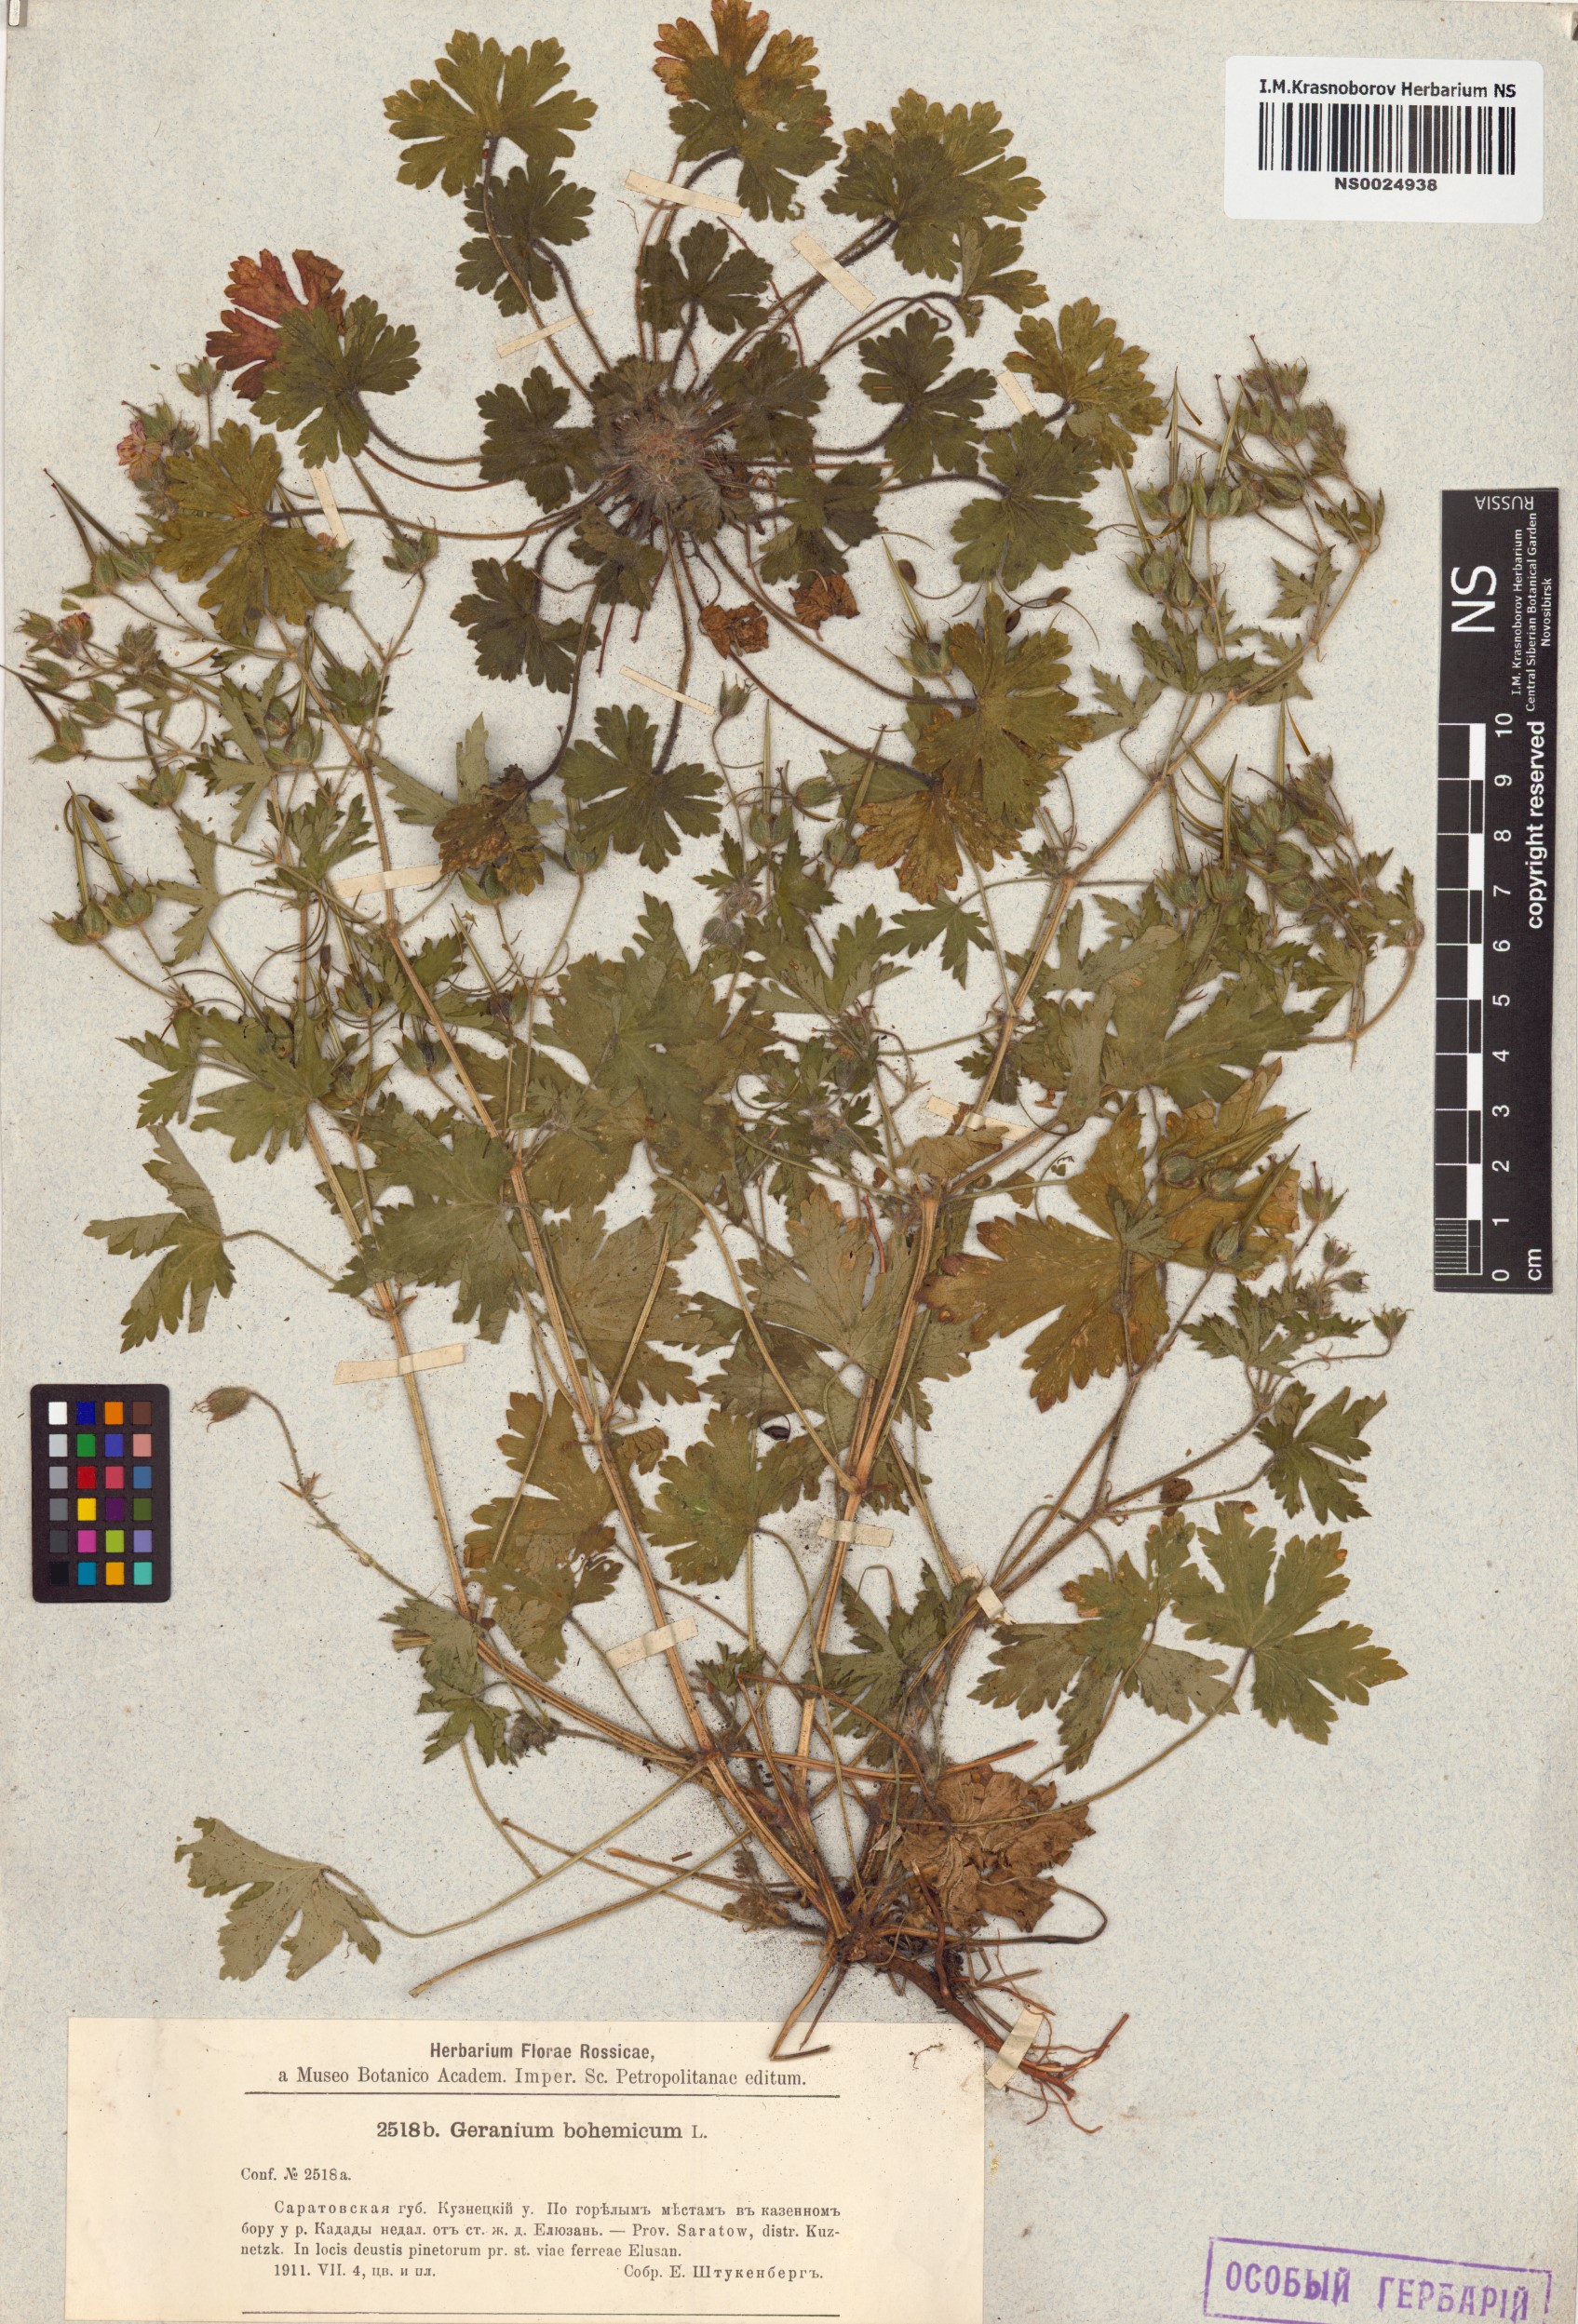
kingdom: Plantae
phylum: Tracheophyta
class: Magnoliopsida
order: Geraniales
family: Geraniaceae
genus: Geranium
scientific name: Geranium bohemicum
